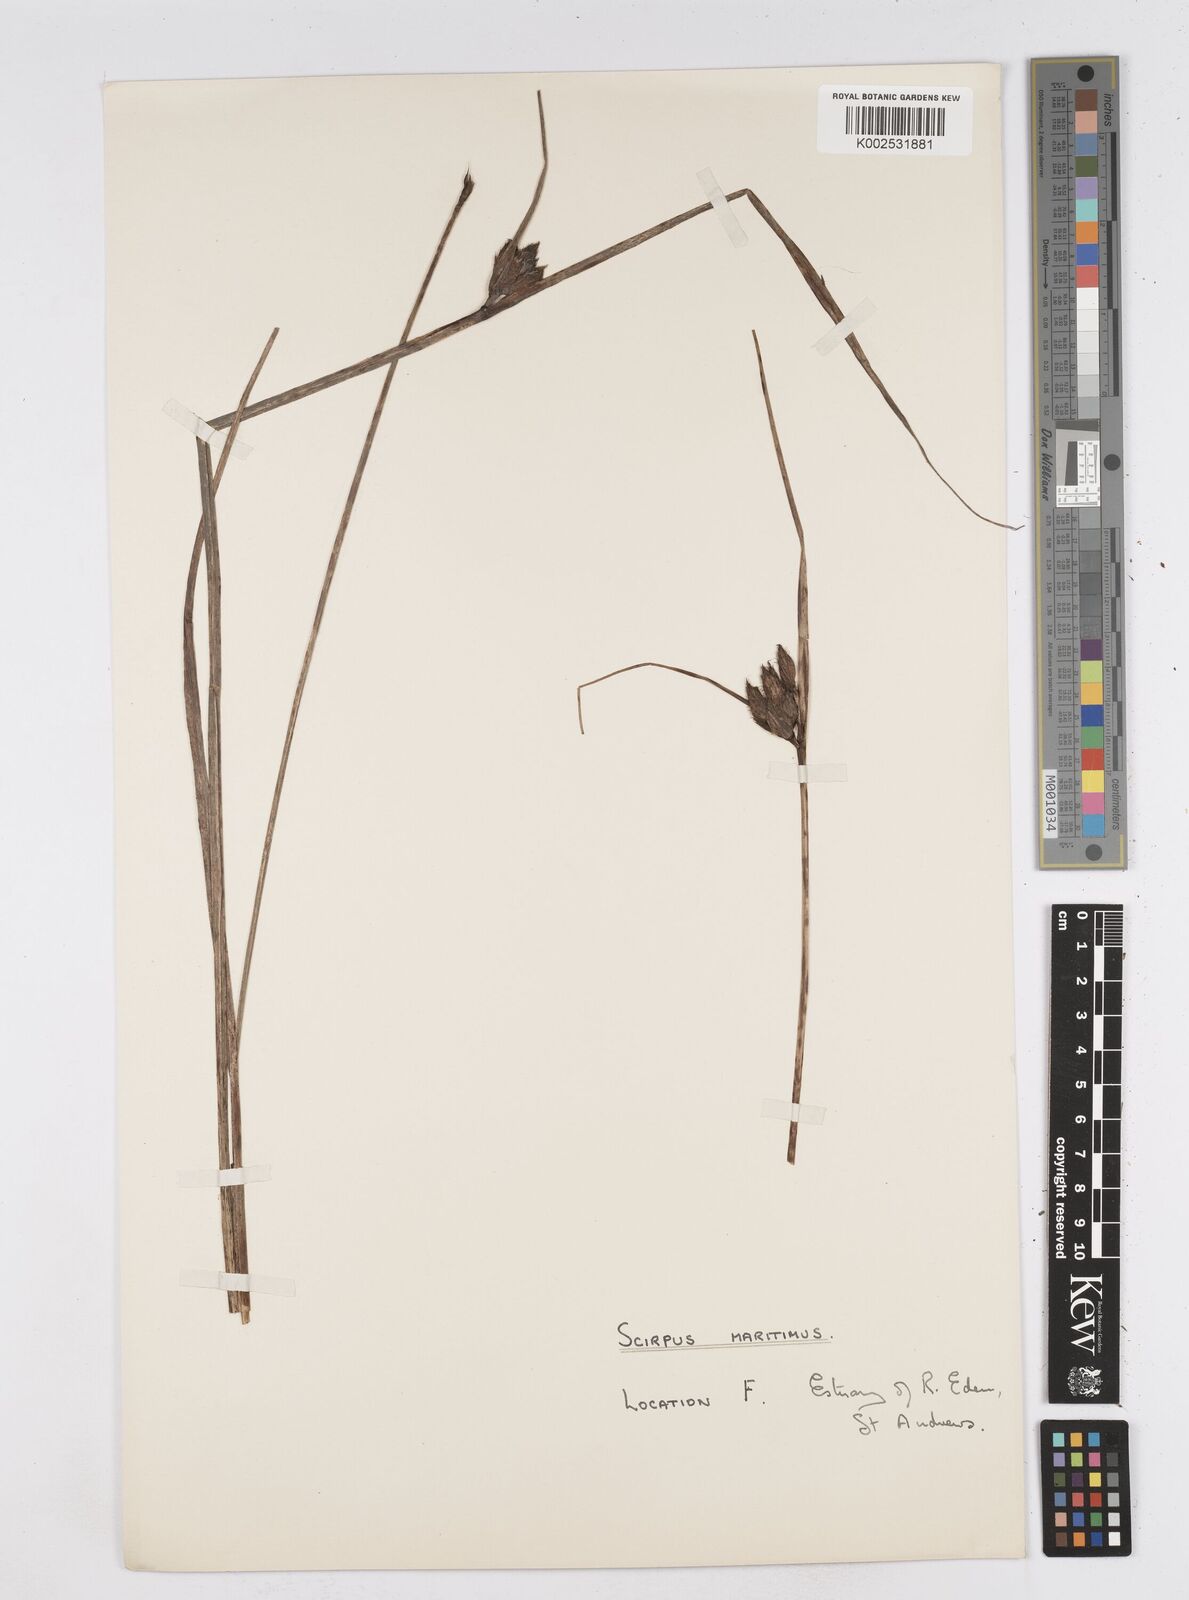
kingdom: Plantae
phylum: Tracheophyta
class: Liliopsida
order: Poales
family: Cyperaceae
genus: Bolboschoenus
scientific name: Bolboschoenus maritimus
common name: Sea club-rush
